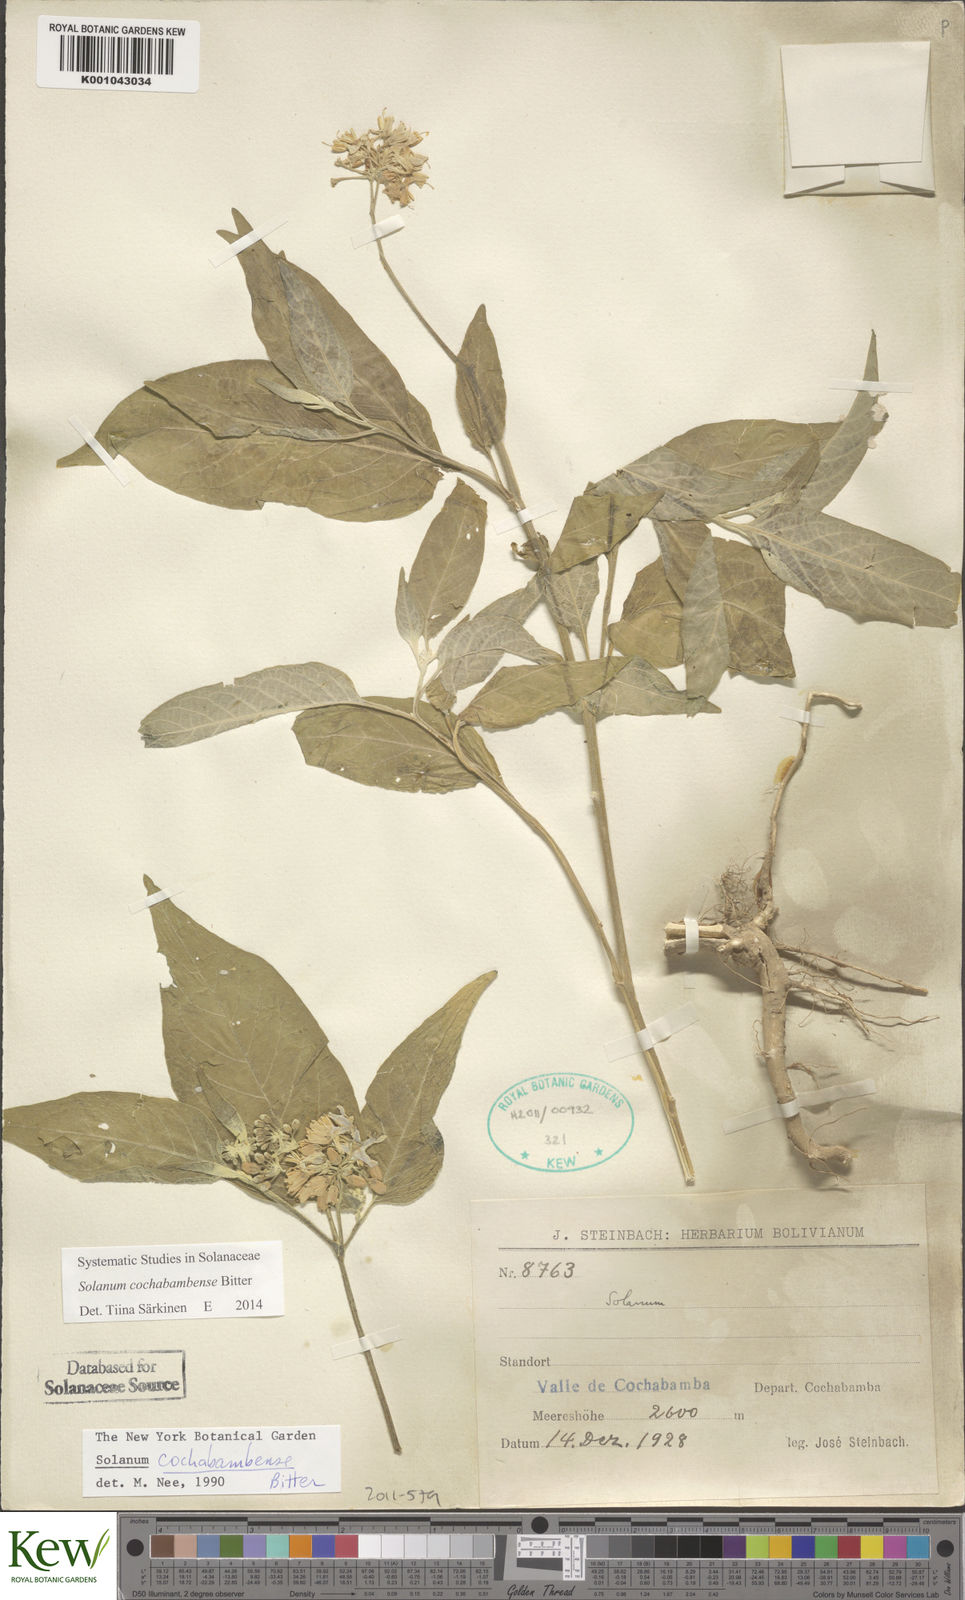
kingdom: Plantae
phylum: Tracheophyta
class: Magnoliopsida
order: Solanales
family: Solanaceae
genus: Solanum
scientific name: Solanum aloysiifolium
